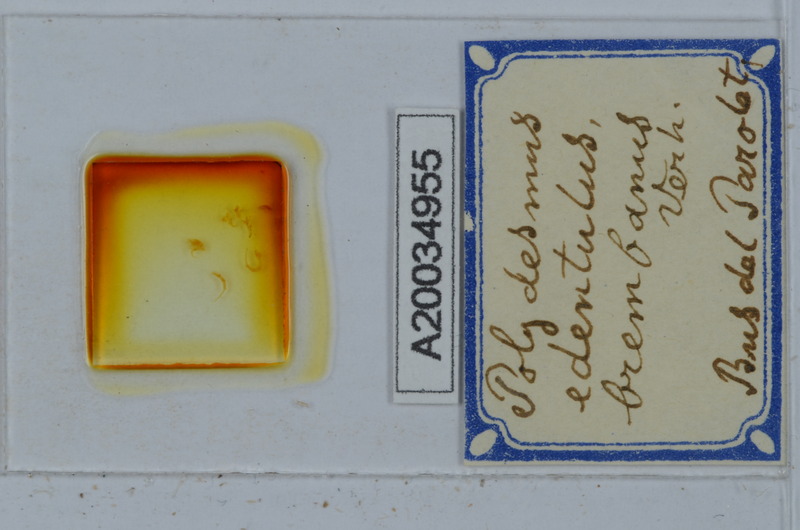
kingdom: Animalia
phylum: Arthropoda
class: Diplopoda
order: Polydesmida
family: Polydesmidae
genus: Polydesmus
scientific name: Polydesmus edentulus
